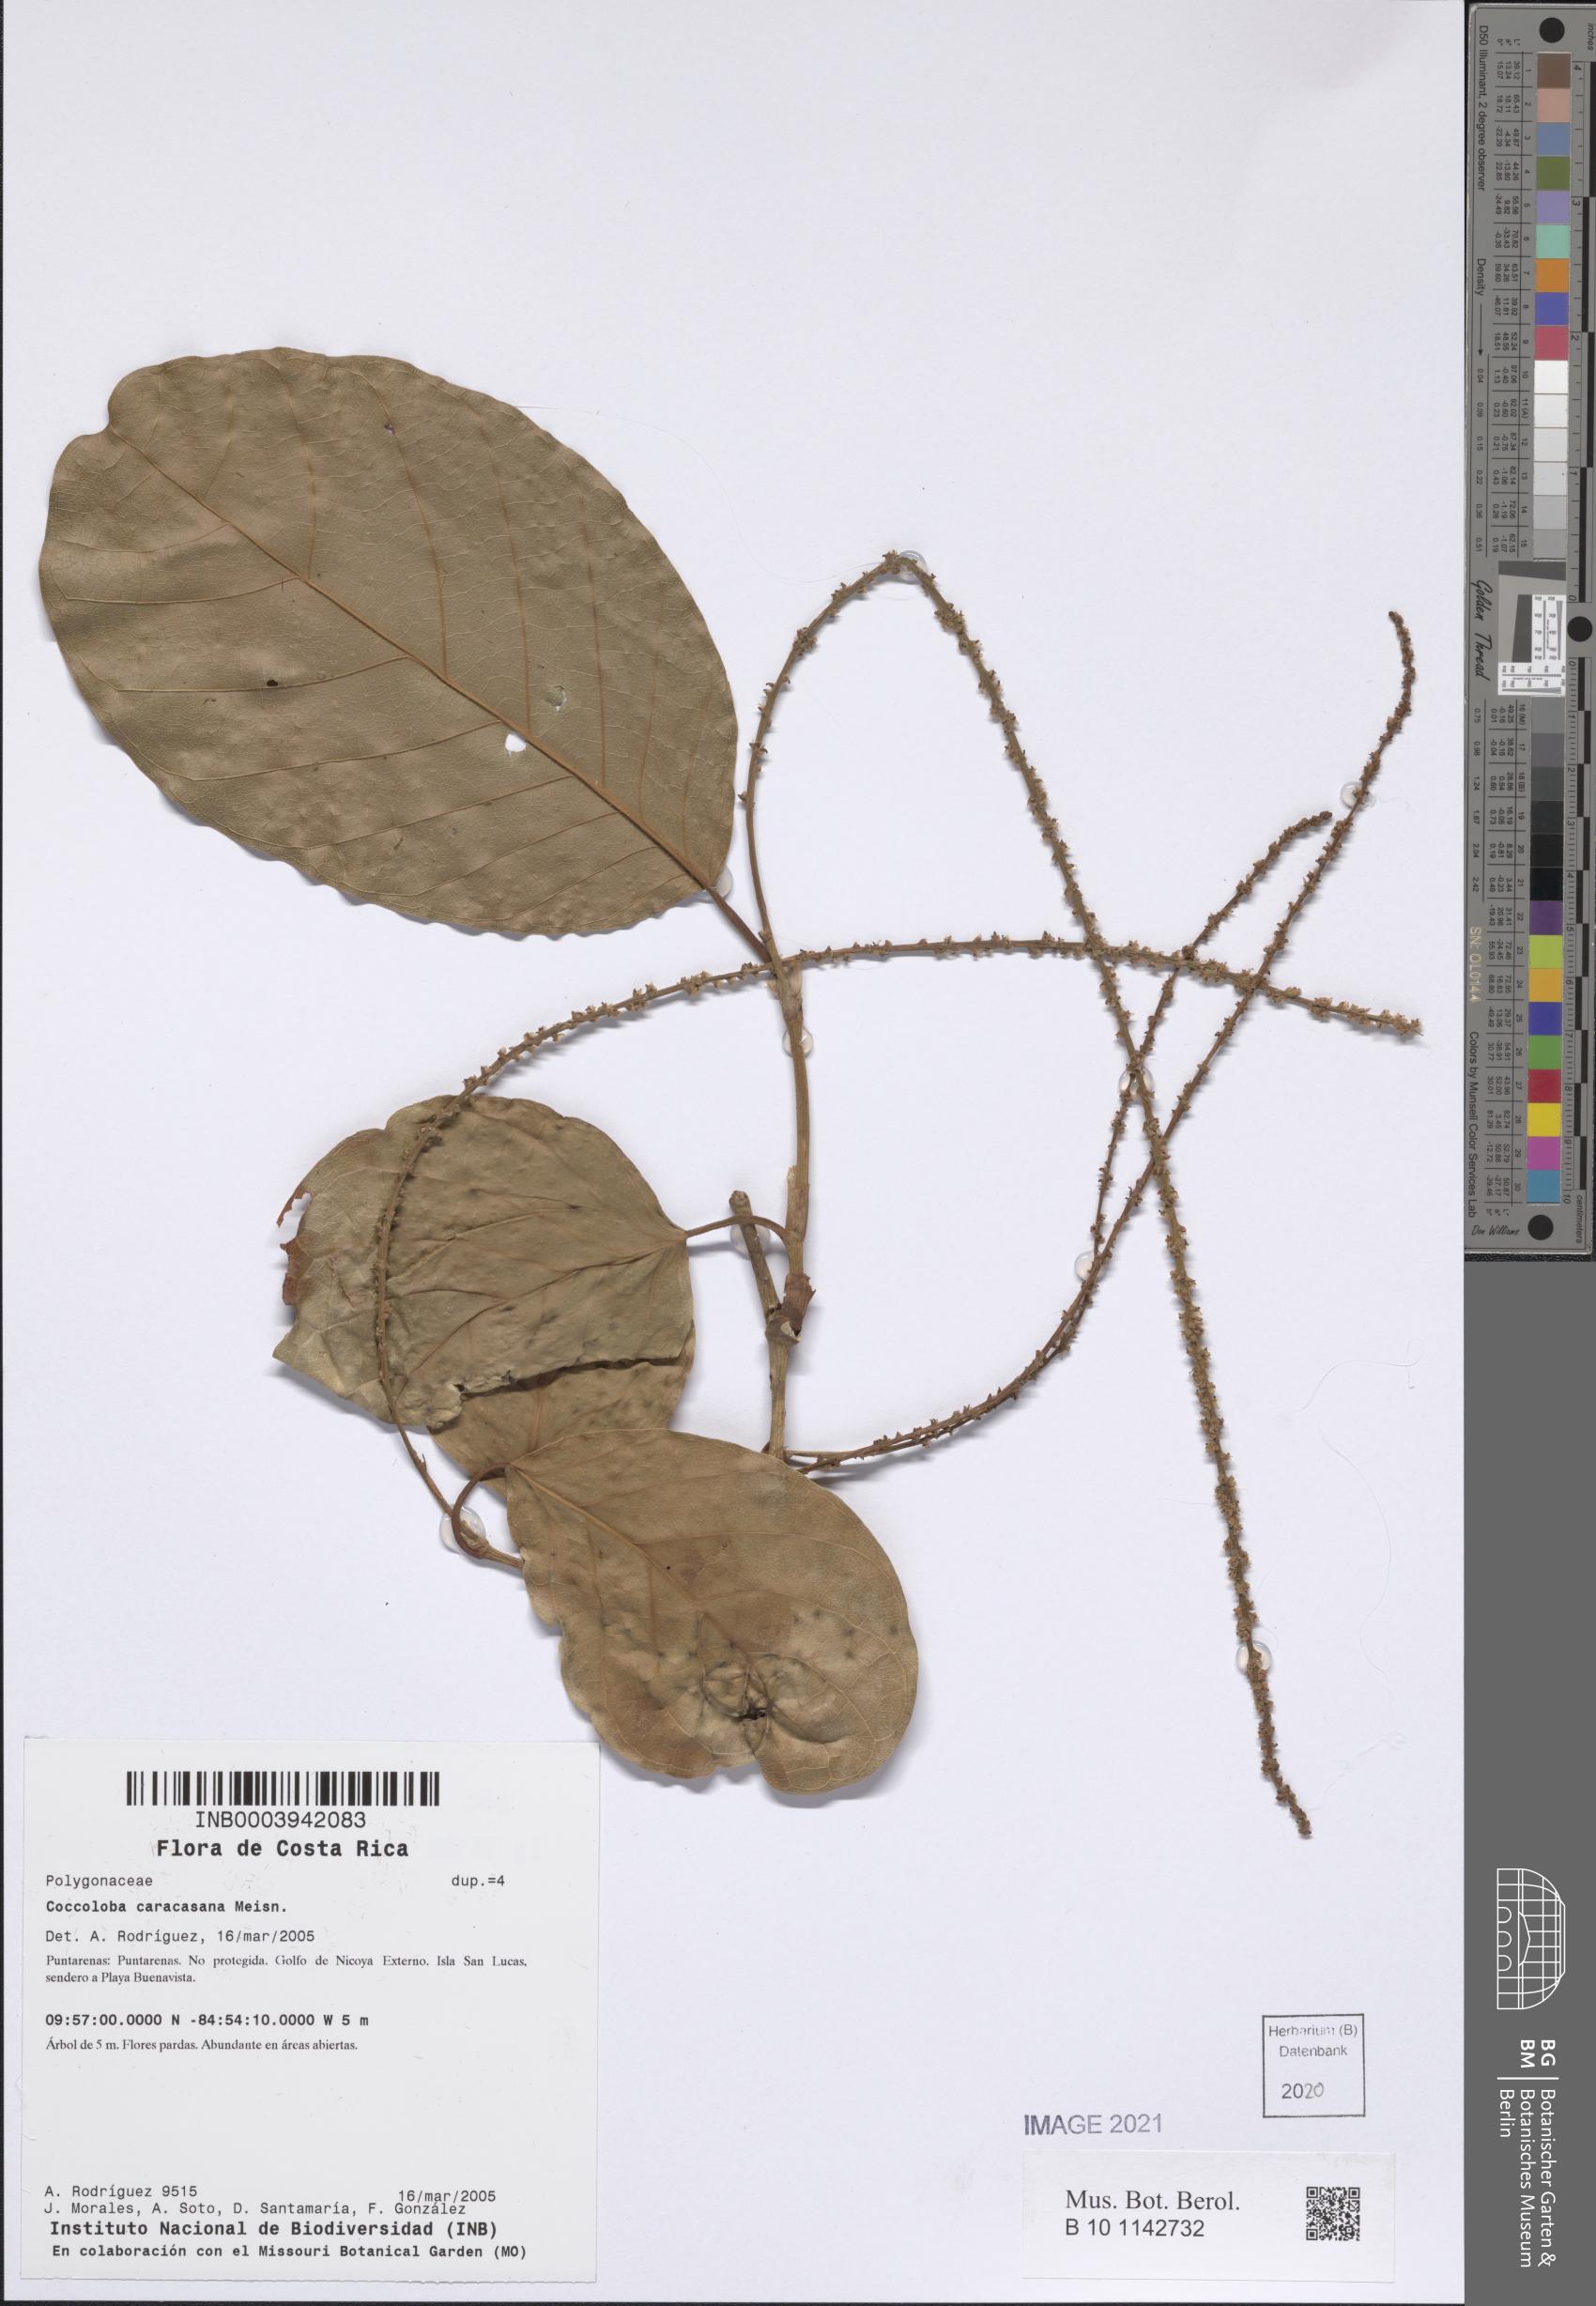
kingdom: Plantae
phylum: Tracheophyta
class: Magnoliopsida
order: Caryophyllales
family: Polygonaceae
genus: Coccoloba
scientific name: Coccoloba caracasana
